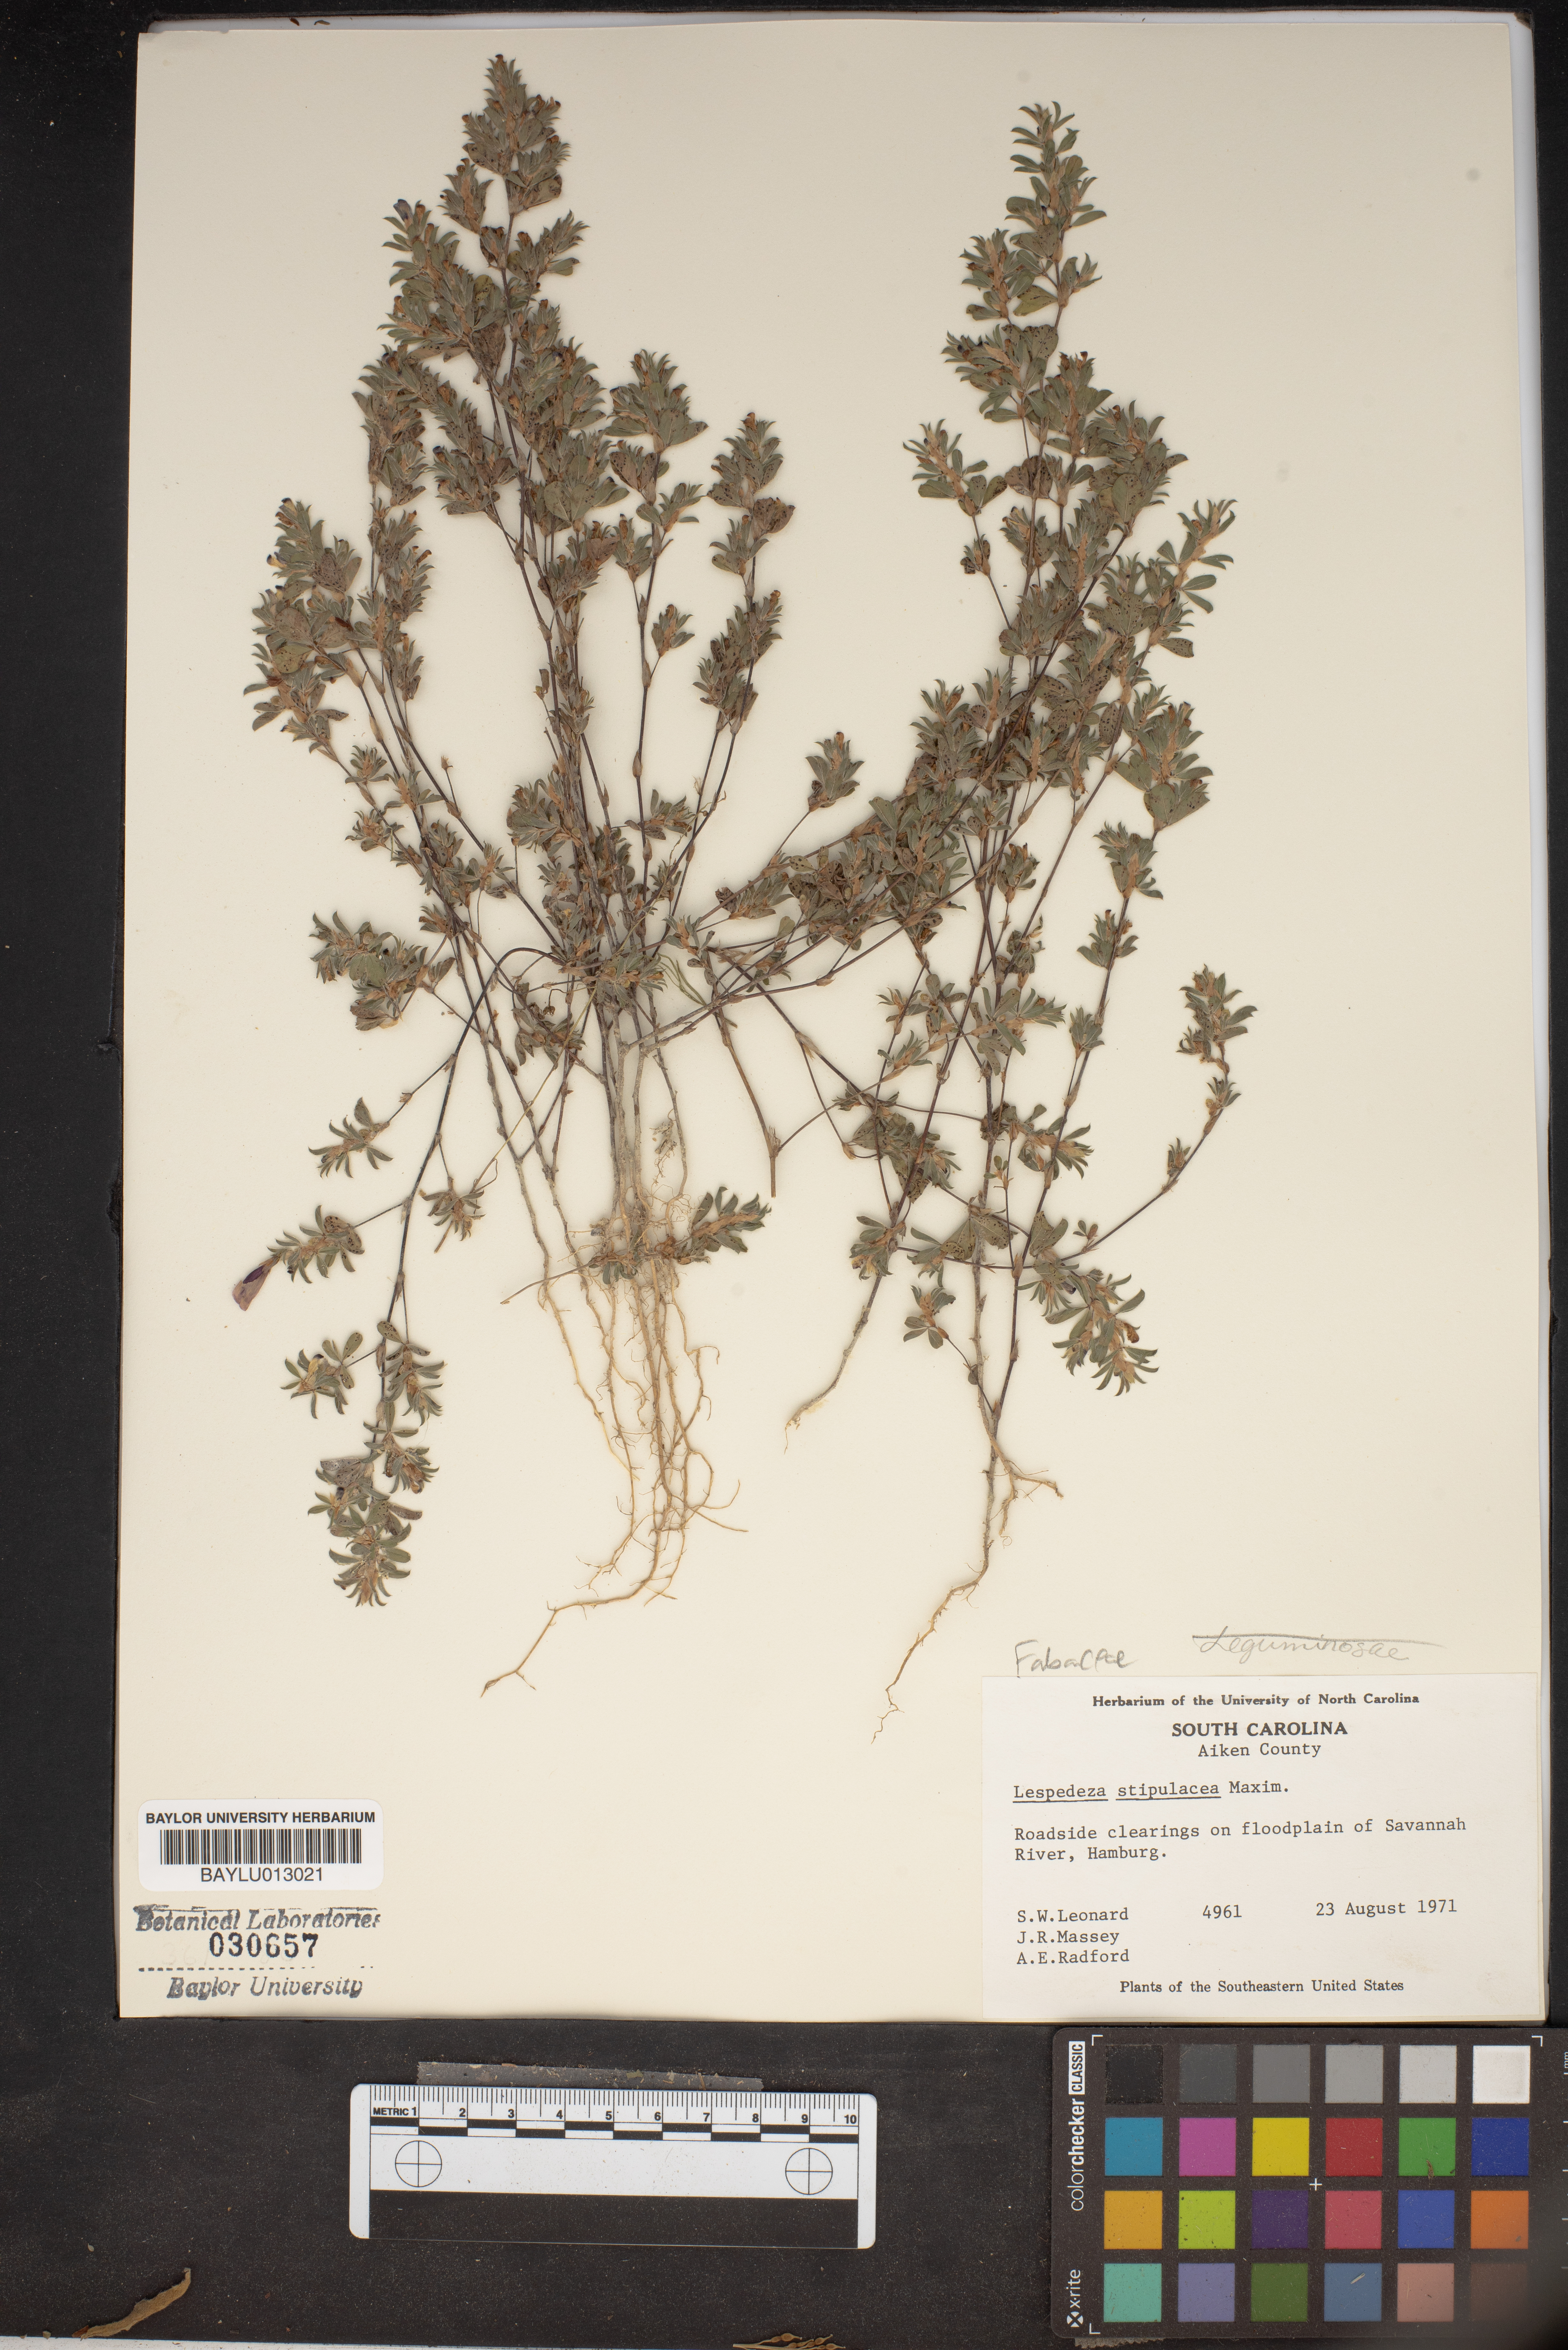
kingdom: Plantae
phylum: Tracheophyta
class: Magnoliopsida
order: Fabales
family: Fabaceae
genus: Kummerowia
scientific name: Kummerowia stipulacea
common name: Korean clover
